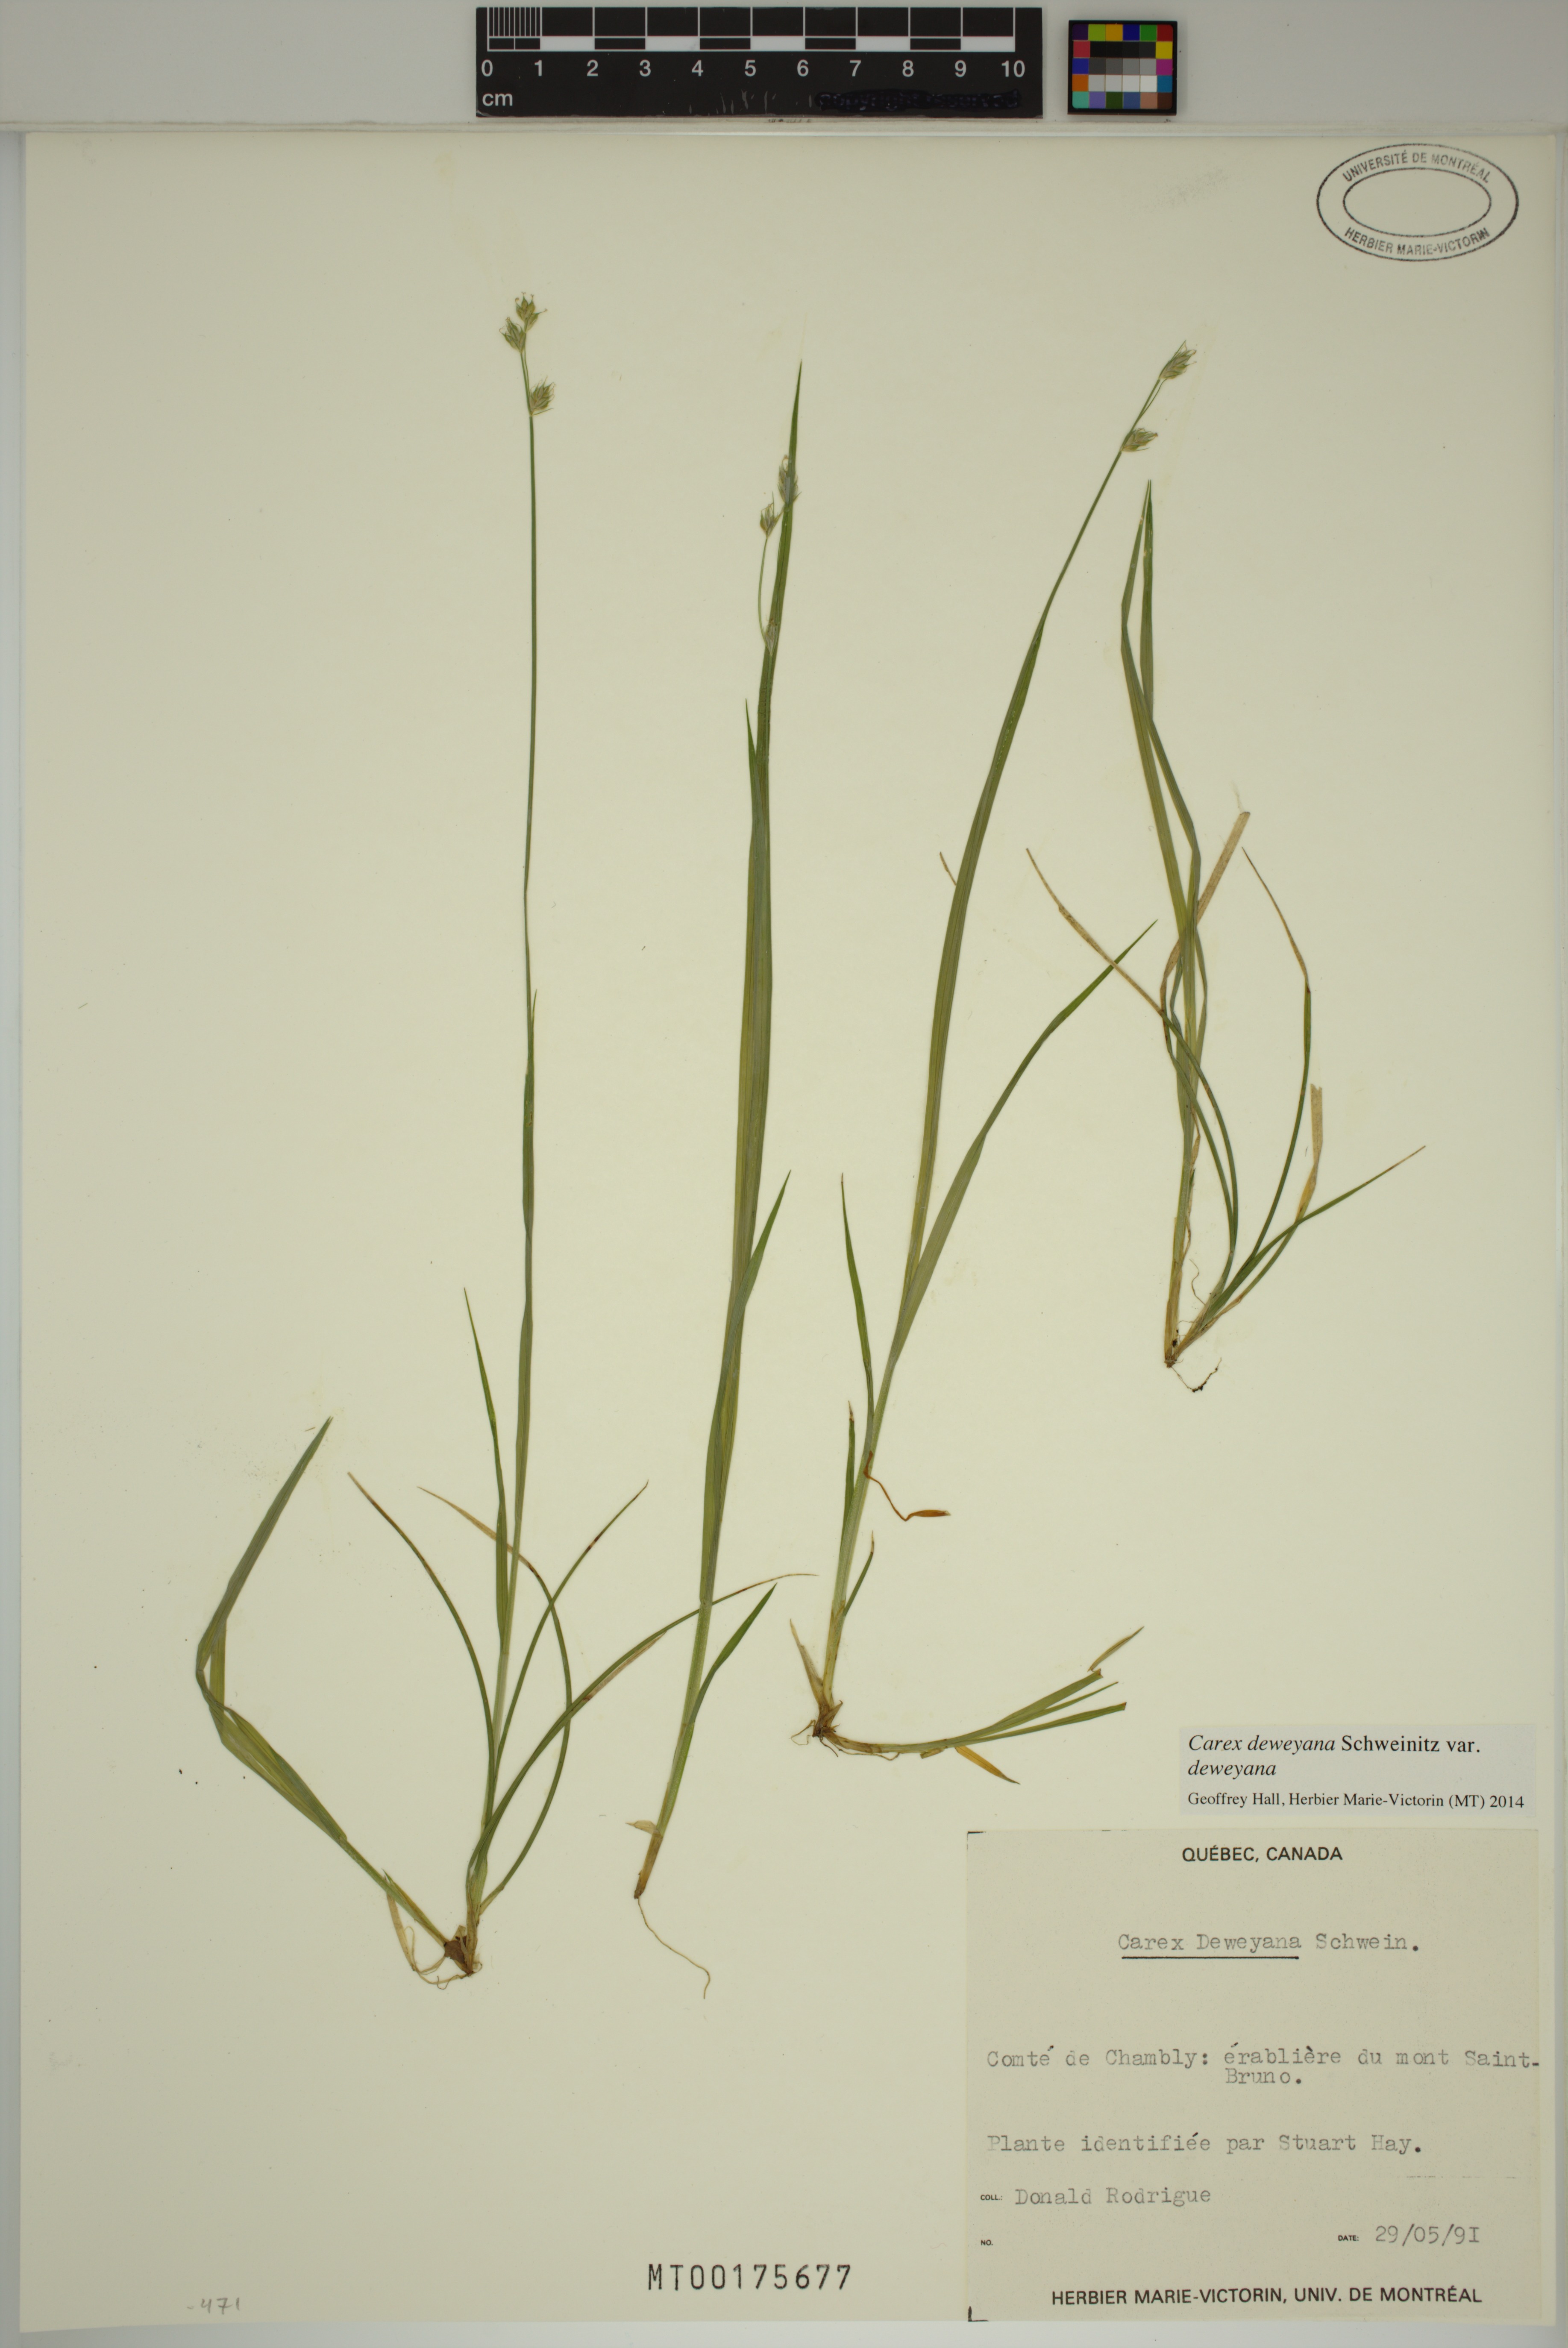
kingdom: Plantae
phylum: Tracheophyta
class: Liliopsida
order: Poales
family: Cyperaceae
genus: Carex
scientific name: Carex deweyana
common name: Dewey's sedge
